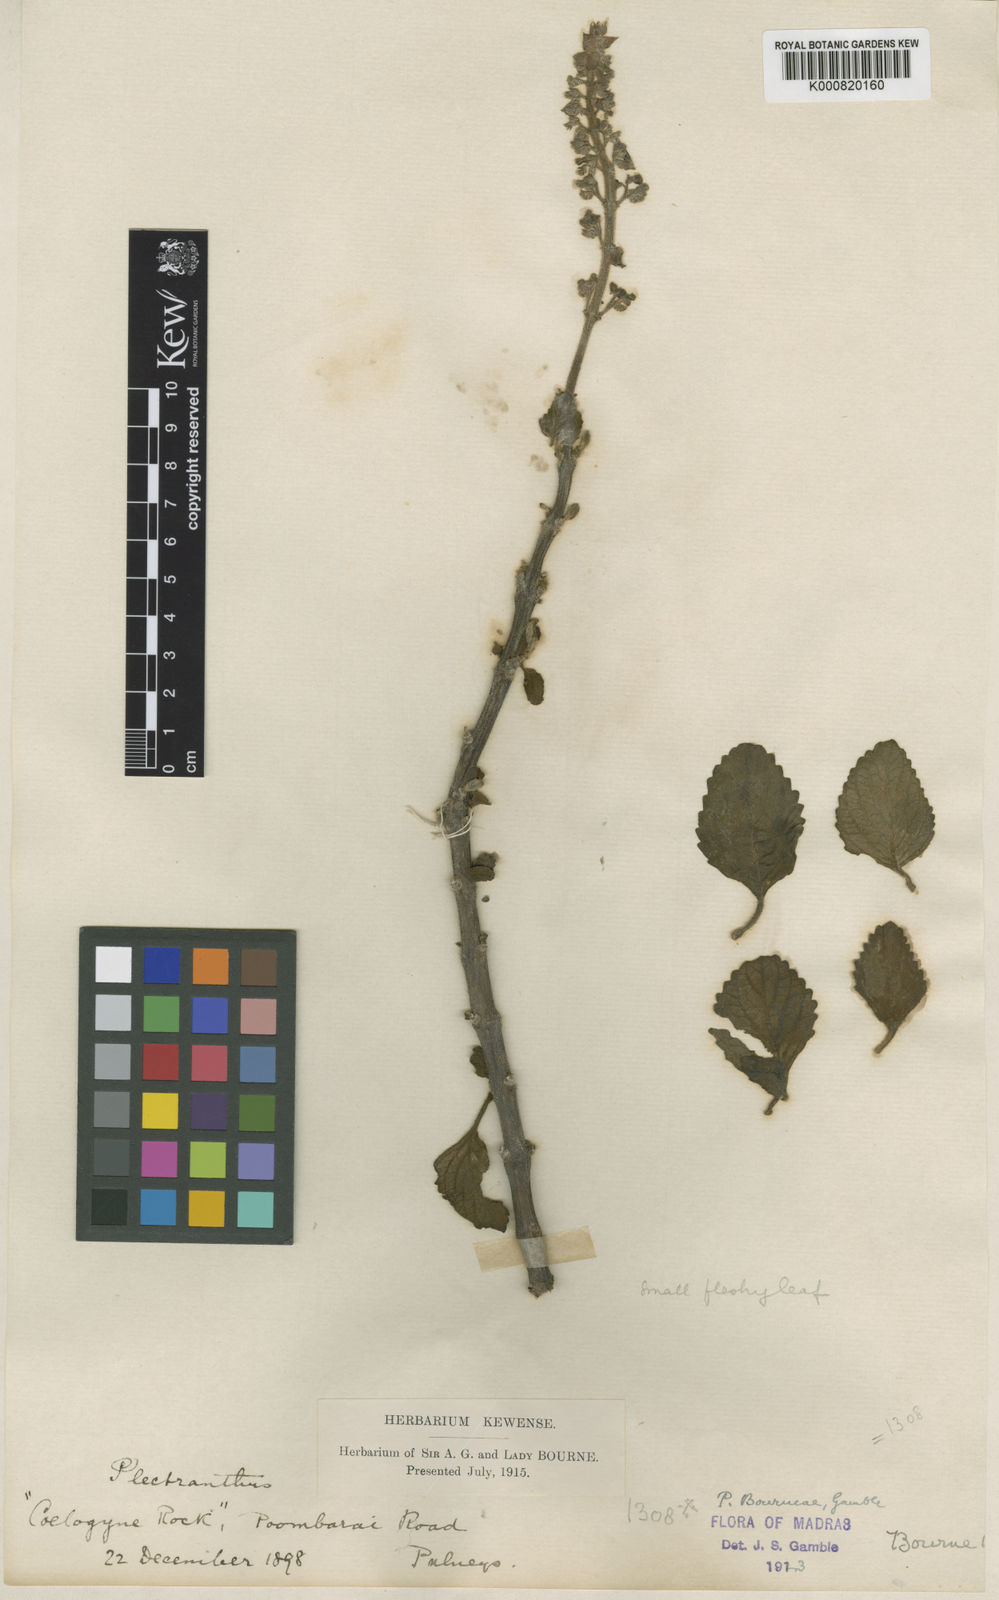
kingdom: Plantae
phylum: Tracheophyta
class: Magnoliopsida
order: Lamiales
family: Lamiaceae
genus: Coleus
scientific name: Coleus bourneae
